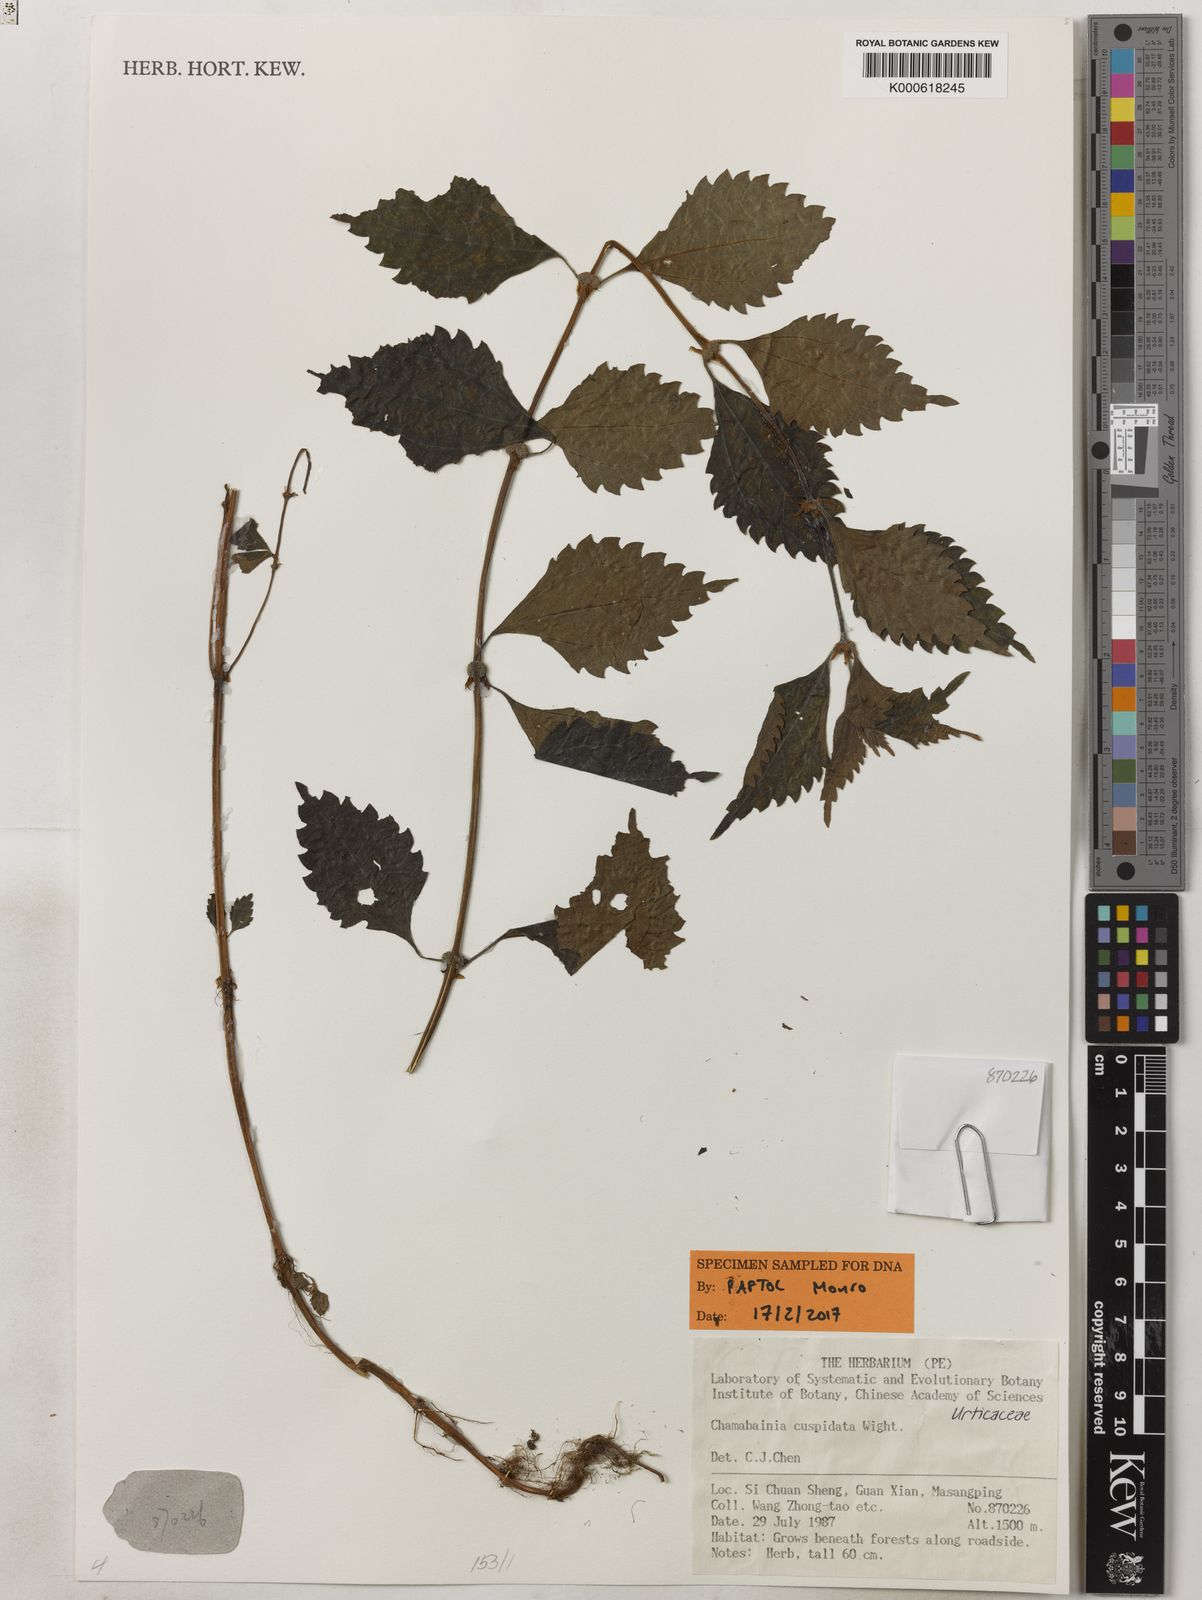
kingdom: Plantae
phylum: Tracheophyta
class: Magnoliopsida
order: Rosales
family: Urticaceae
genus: Chamabainia
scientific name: Chamabainia cuspidata
